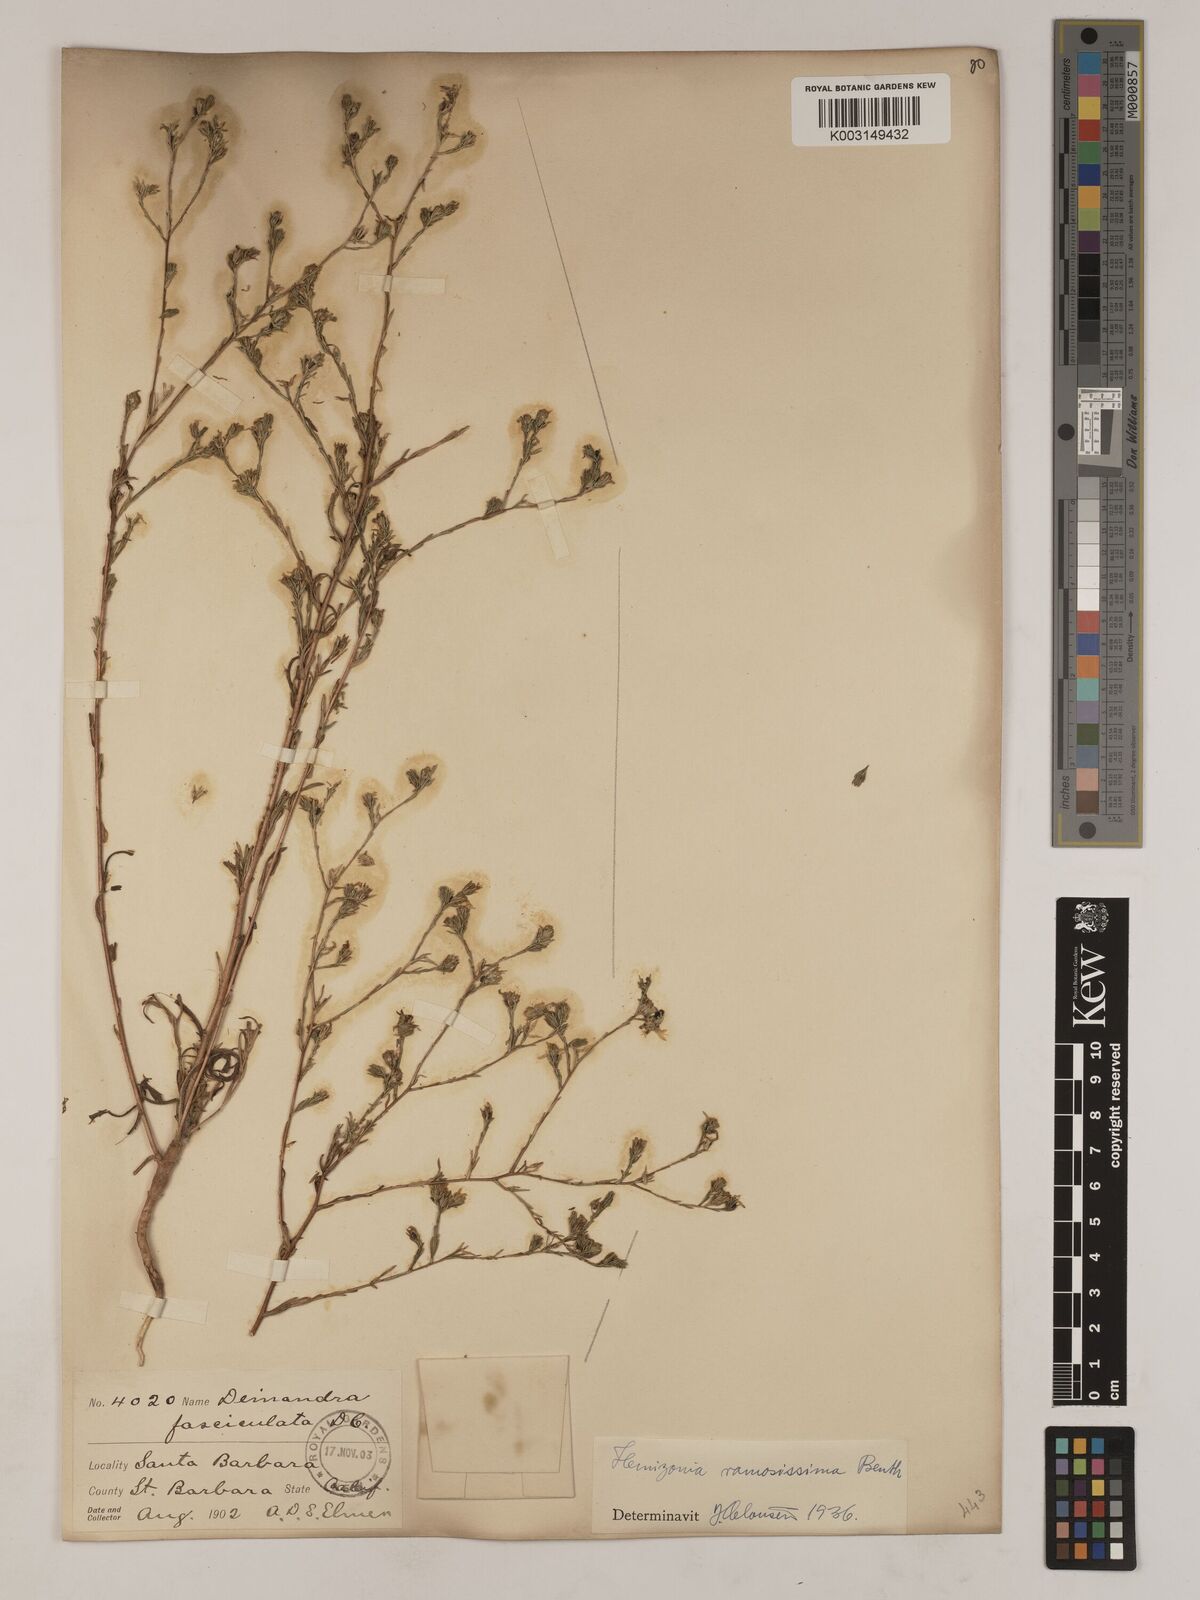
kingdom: Plantae
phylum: Tracheophyta
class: Magnoliopsida
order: Asterales
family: Asteraceae
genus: Deinandra
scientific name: Deinandra fasciculata
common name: Clustered tarweed
